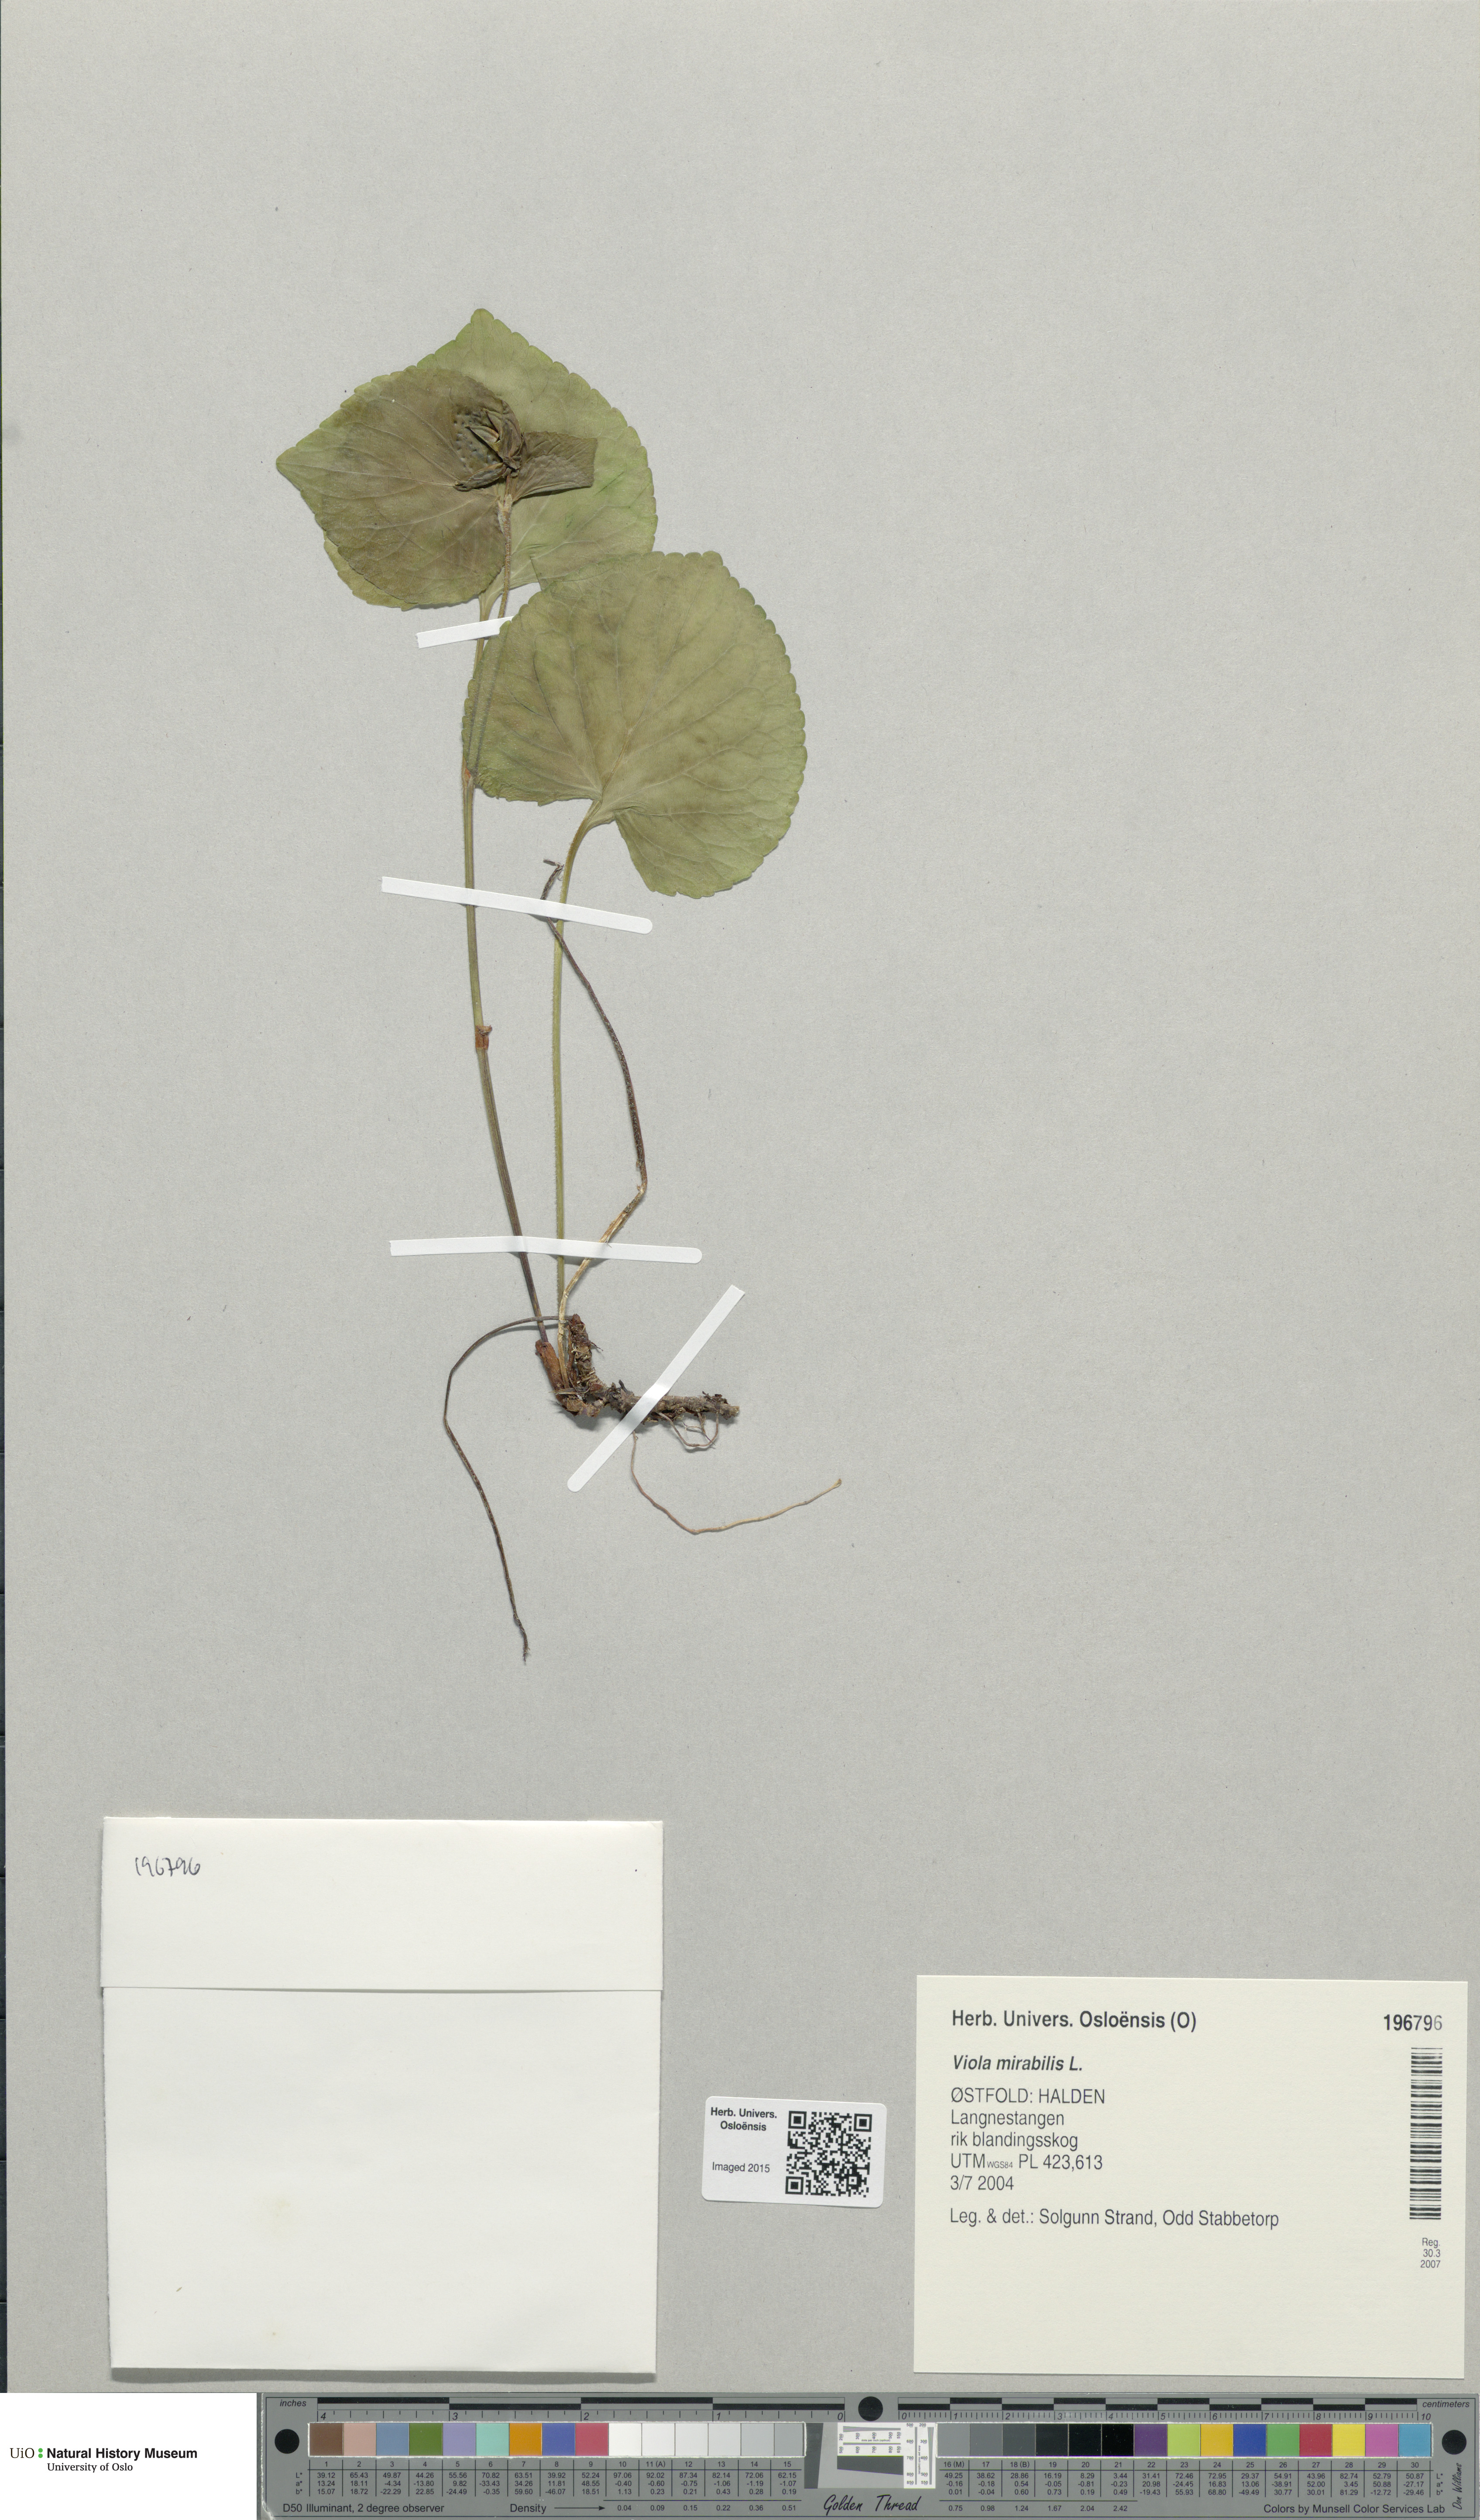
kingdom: Plantae
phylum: Tracheophyta
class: Magnoliopsida
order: Malpighiales
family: Violaceae
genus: Viola
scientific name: Viola mirabilis
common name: Wonder violet
